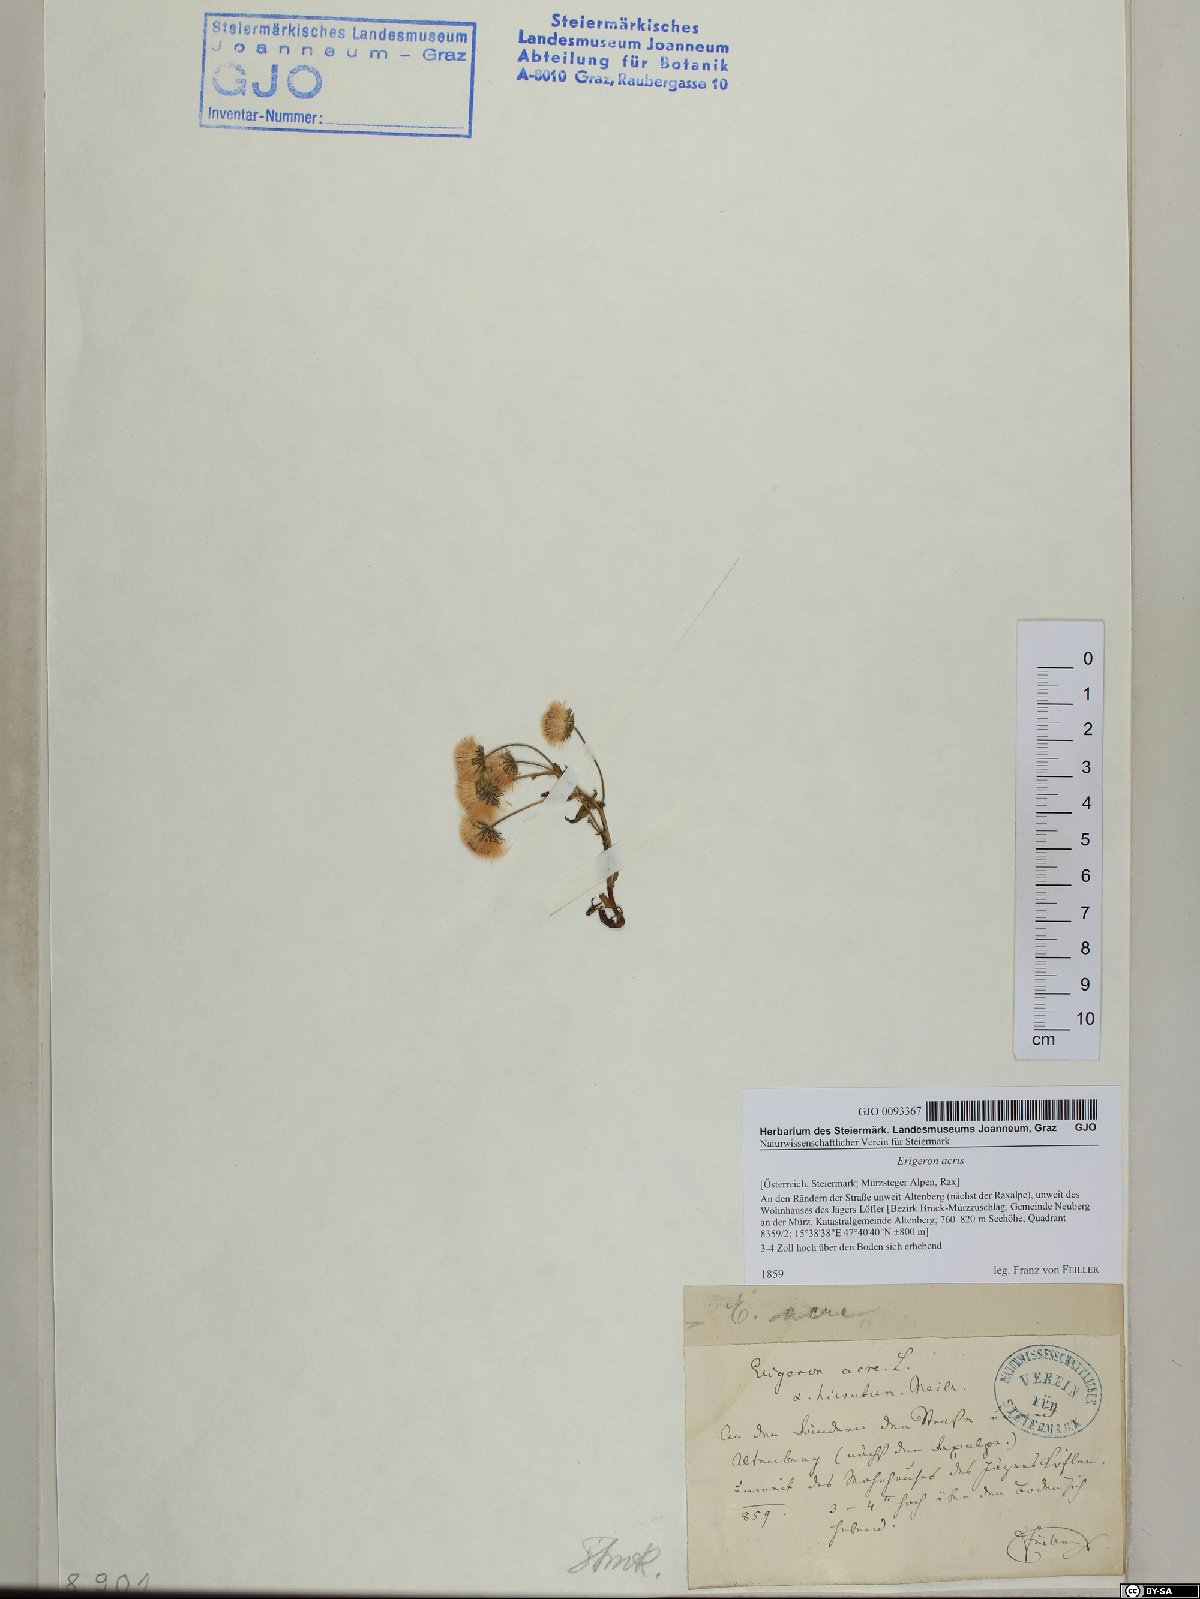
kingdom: Plantae
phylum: Tracheophyta
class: Magnoliopsida
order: Asterales
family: Asteraceae
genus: Erigeron
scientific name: Erigeron acris
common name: Blue fleabane
